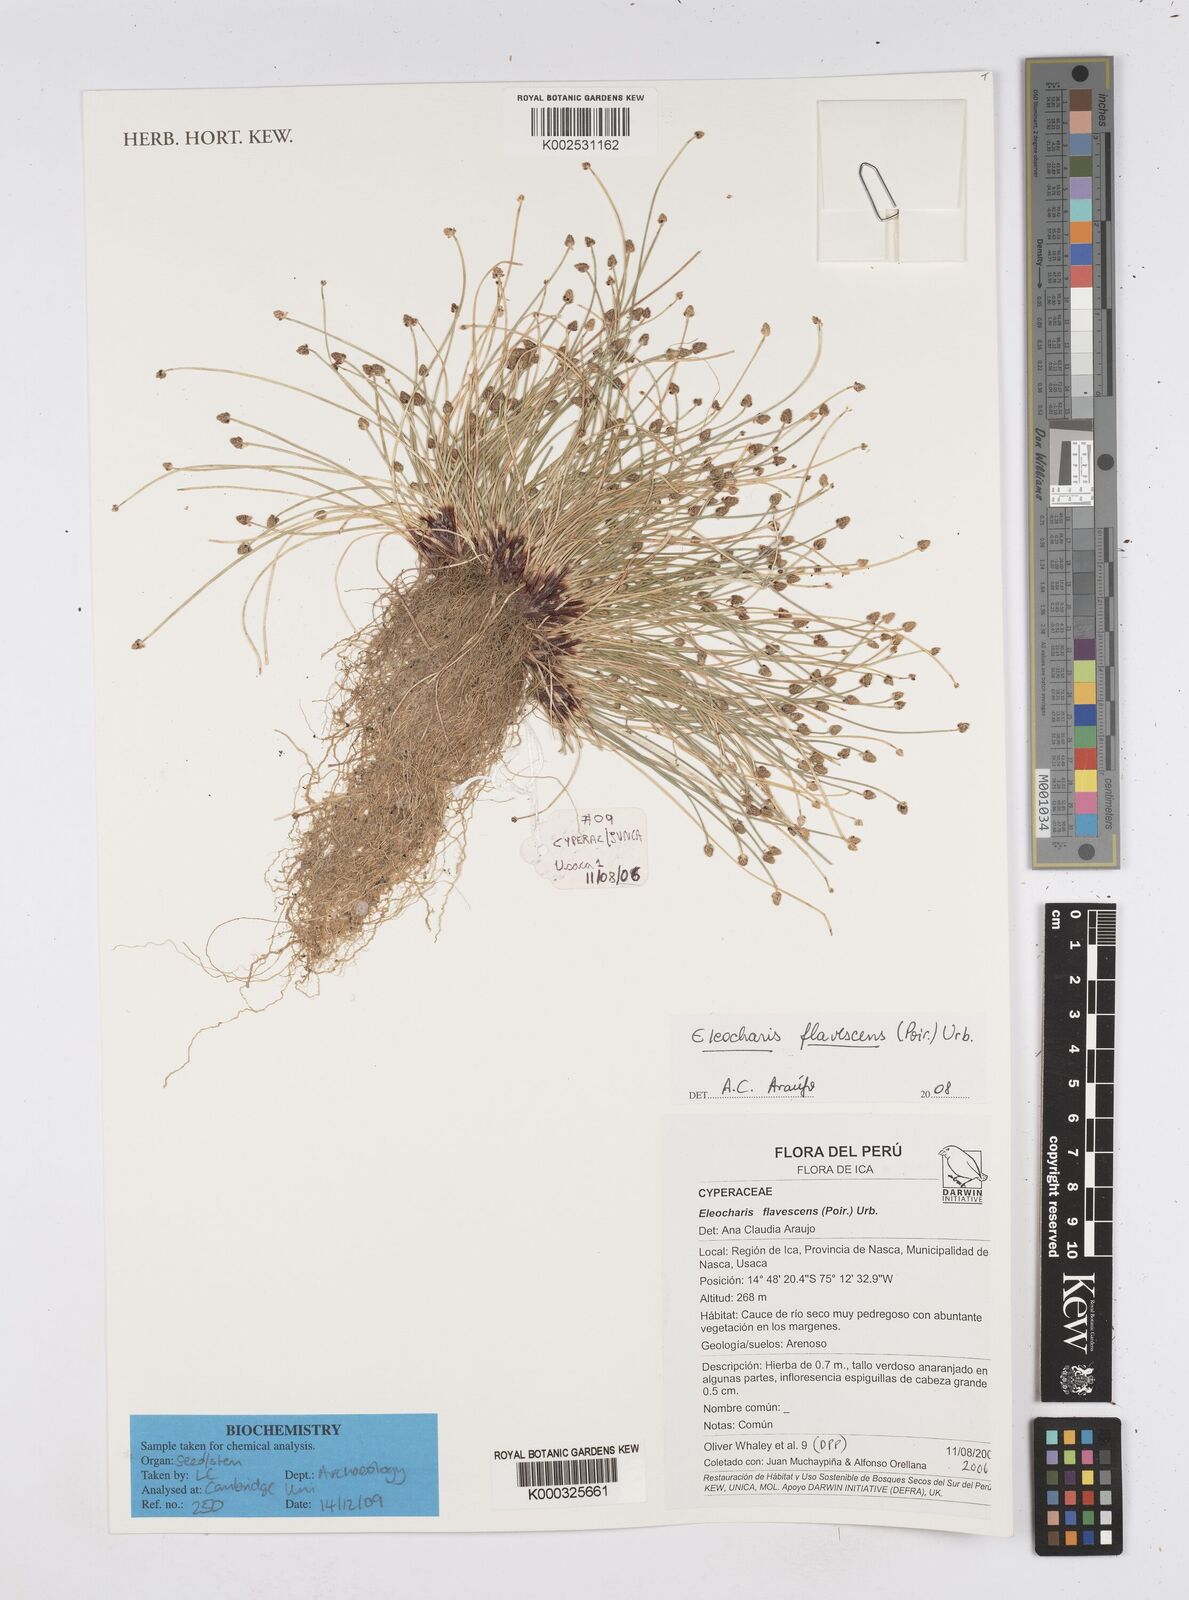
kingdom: Plantae
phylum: Tracheophyta
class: Liliopsida
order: Poales
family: Cyperaceae
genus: Eleocharis
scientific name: Eleocharis flavescens
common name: Yellow spikerush
